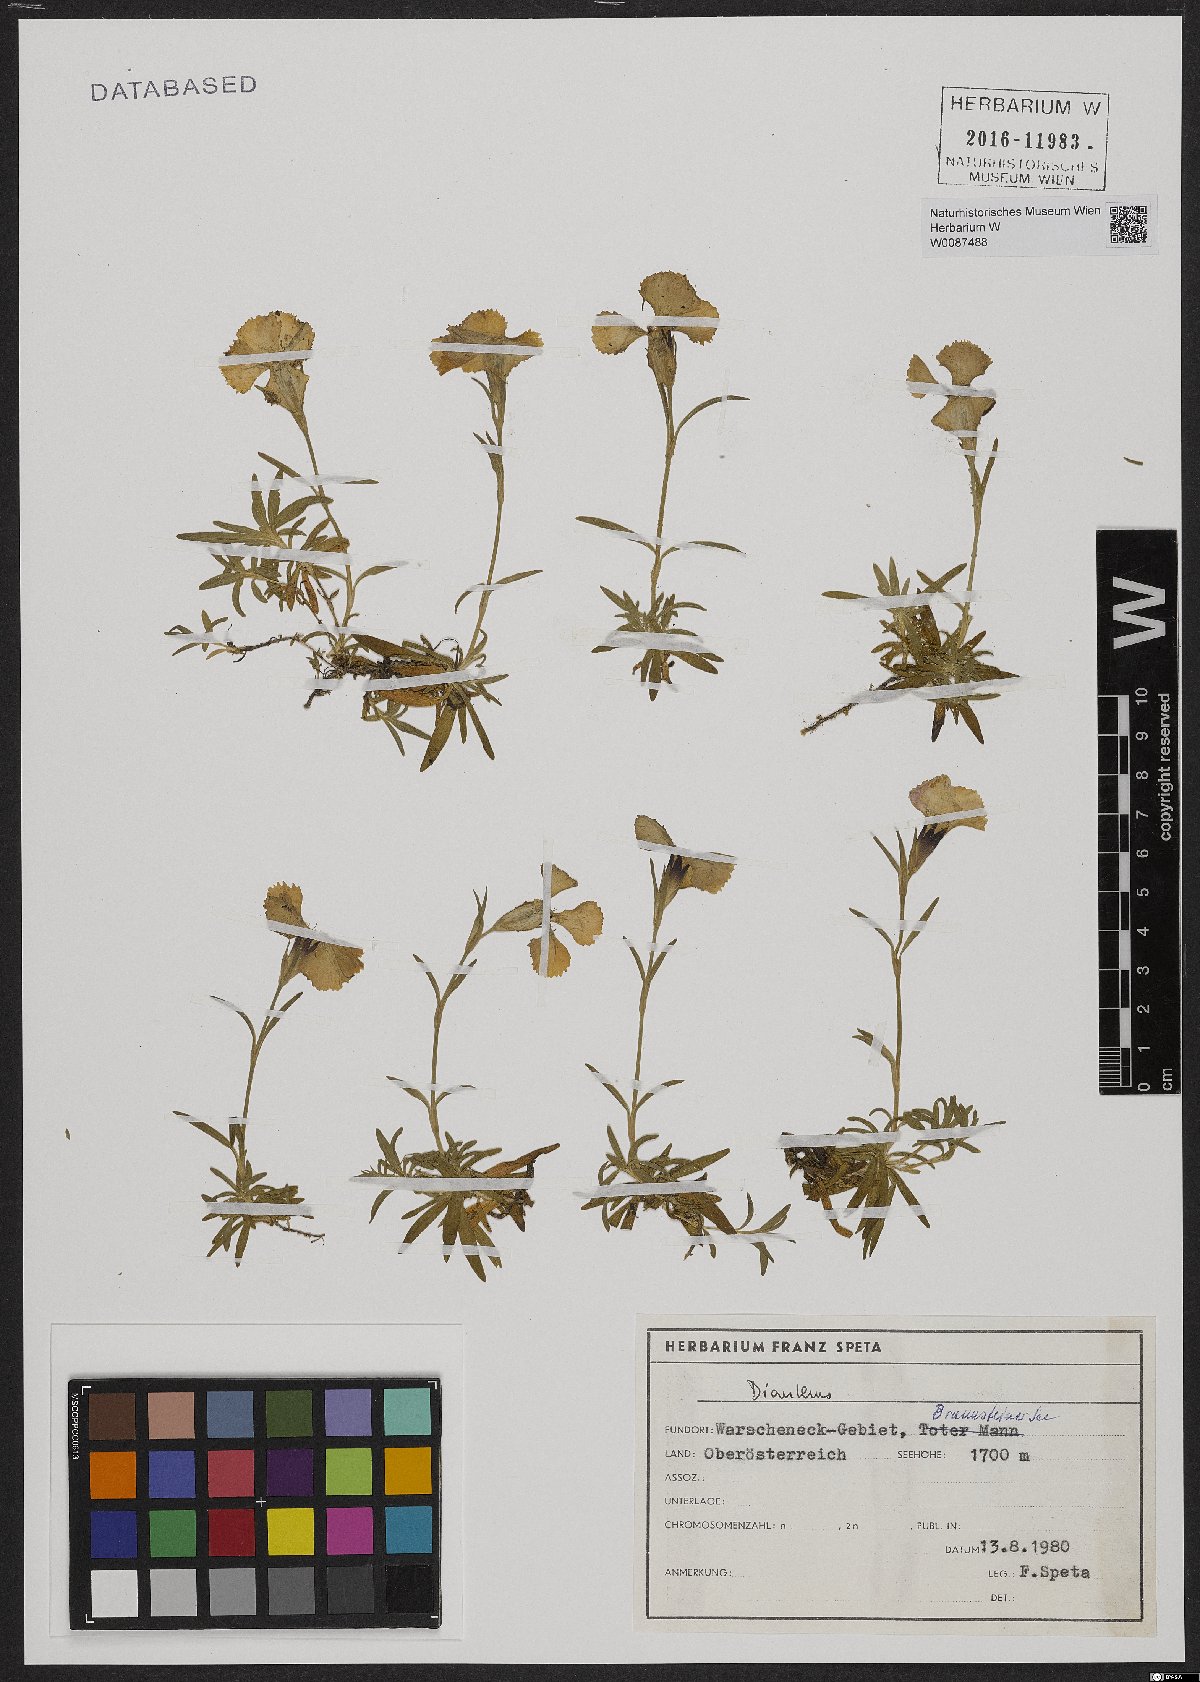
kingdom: Plantae
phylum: Tracheophyta
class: Magnoliopsida
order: Caryophyllales
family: Caryophyllaceae
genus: Dianthus
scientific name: Dianthus alpinus
